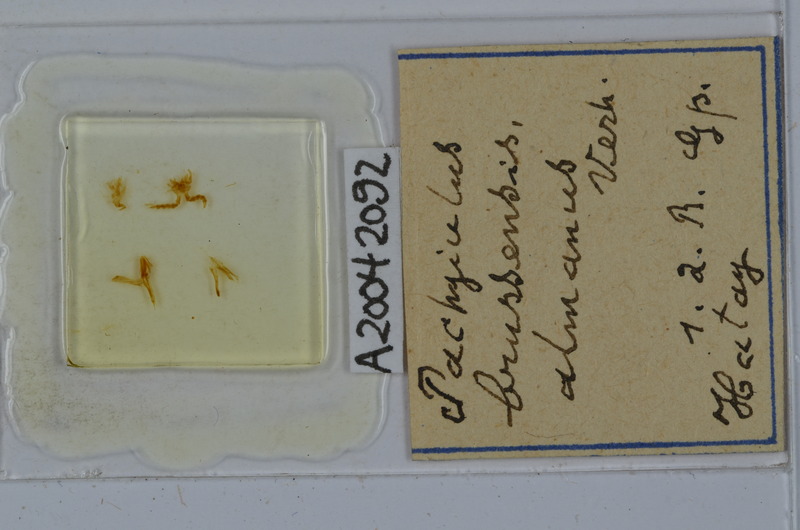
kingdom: Animalia
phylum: Arthropoda
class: Diplopoda
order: Julida
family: Julidae
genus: Pachyiulus
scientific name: Pachyiulus brussensis
